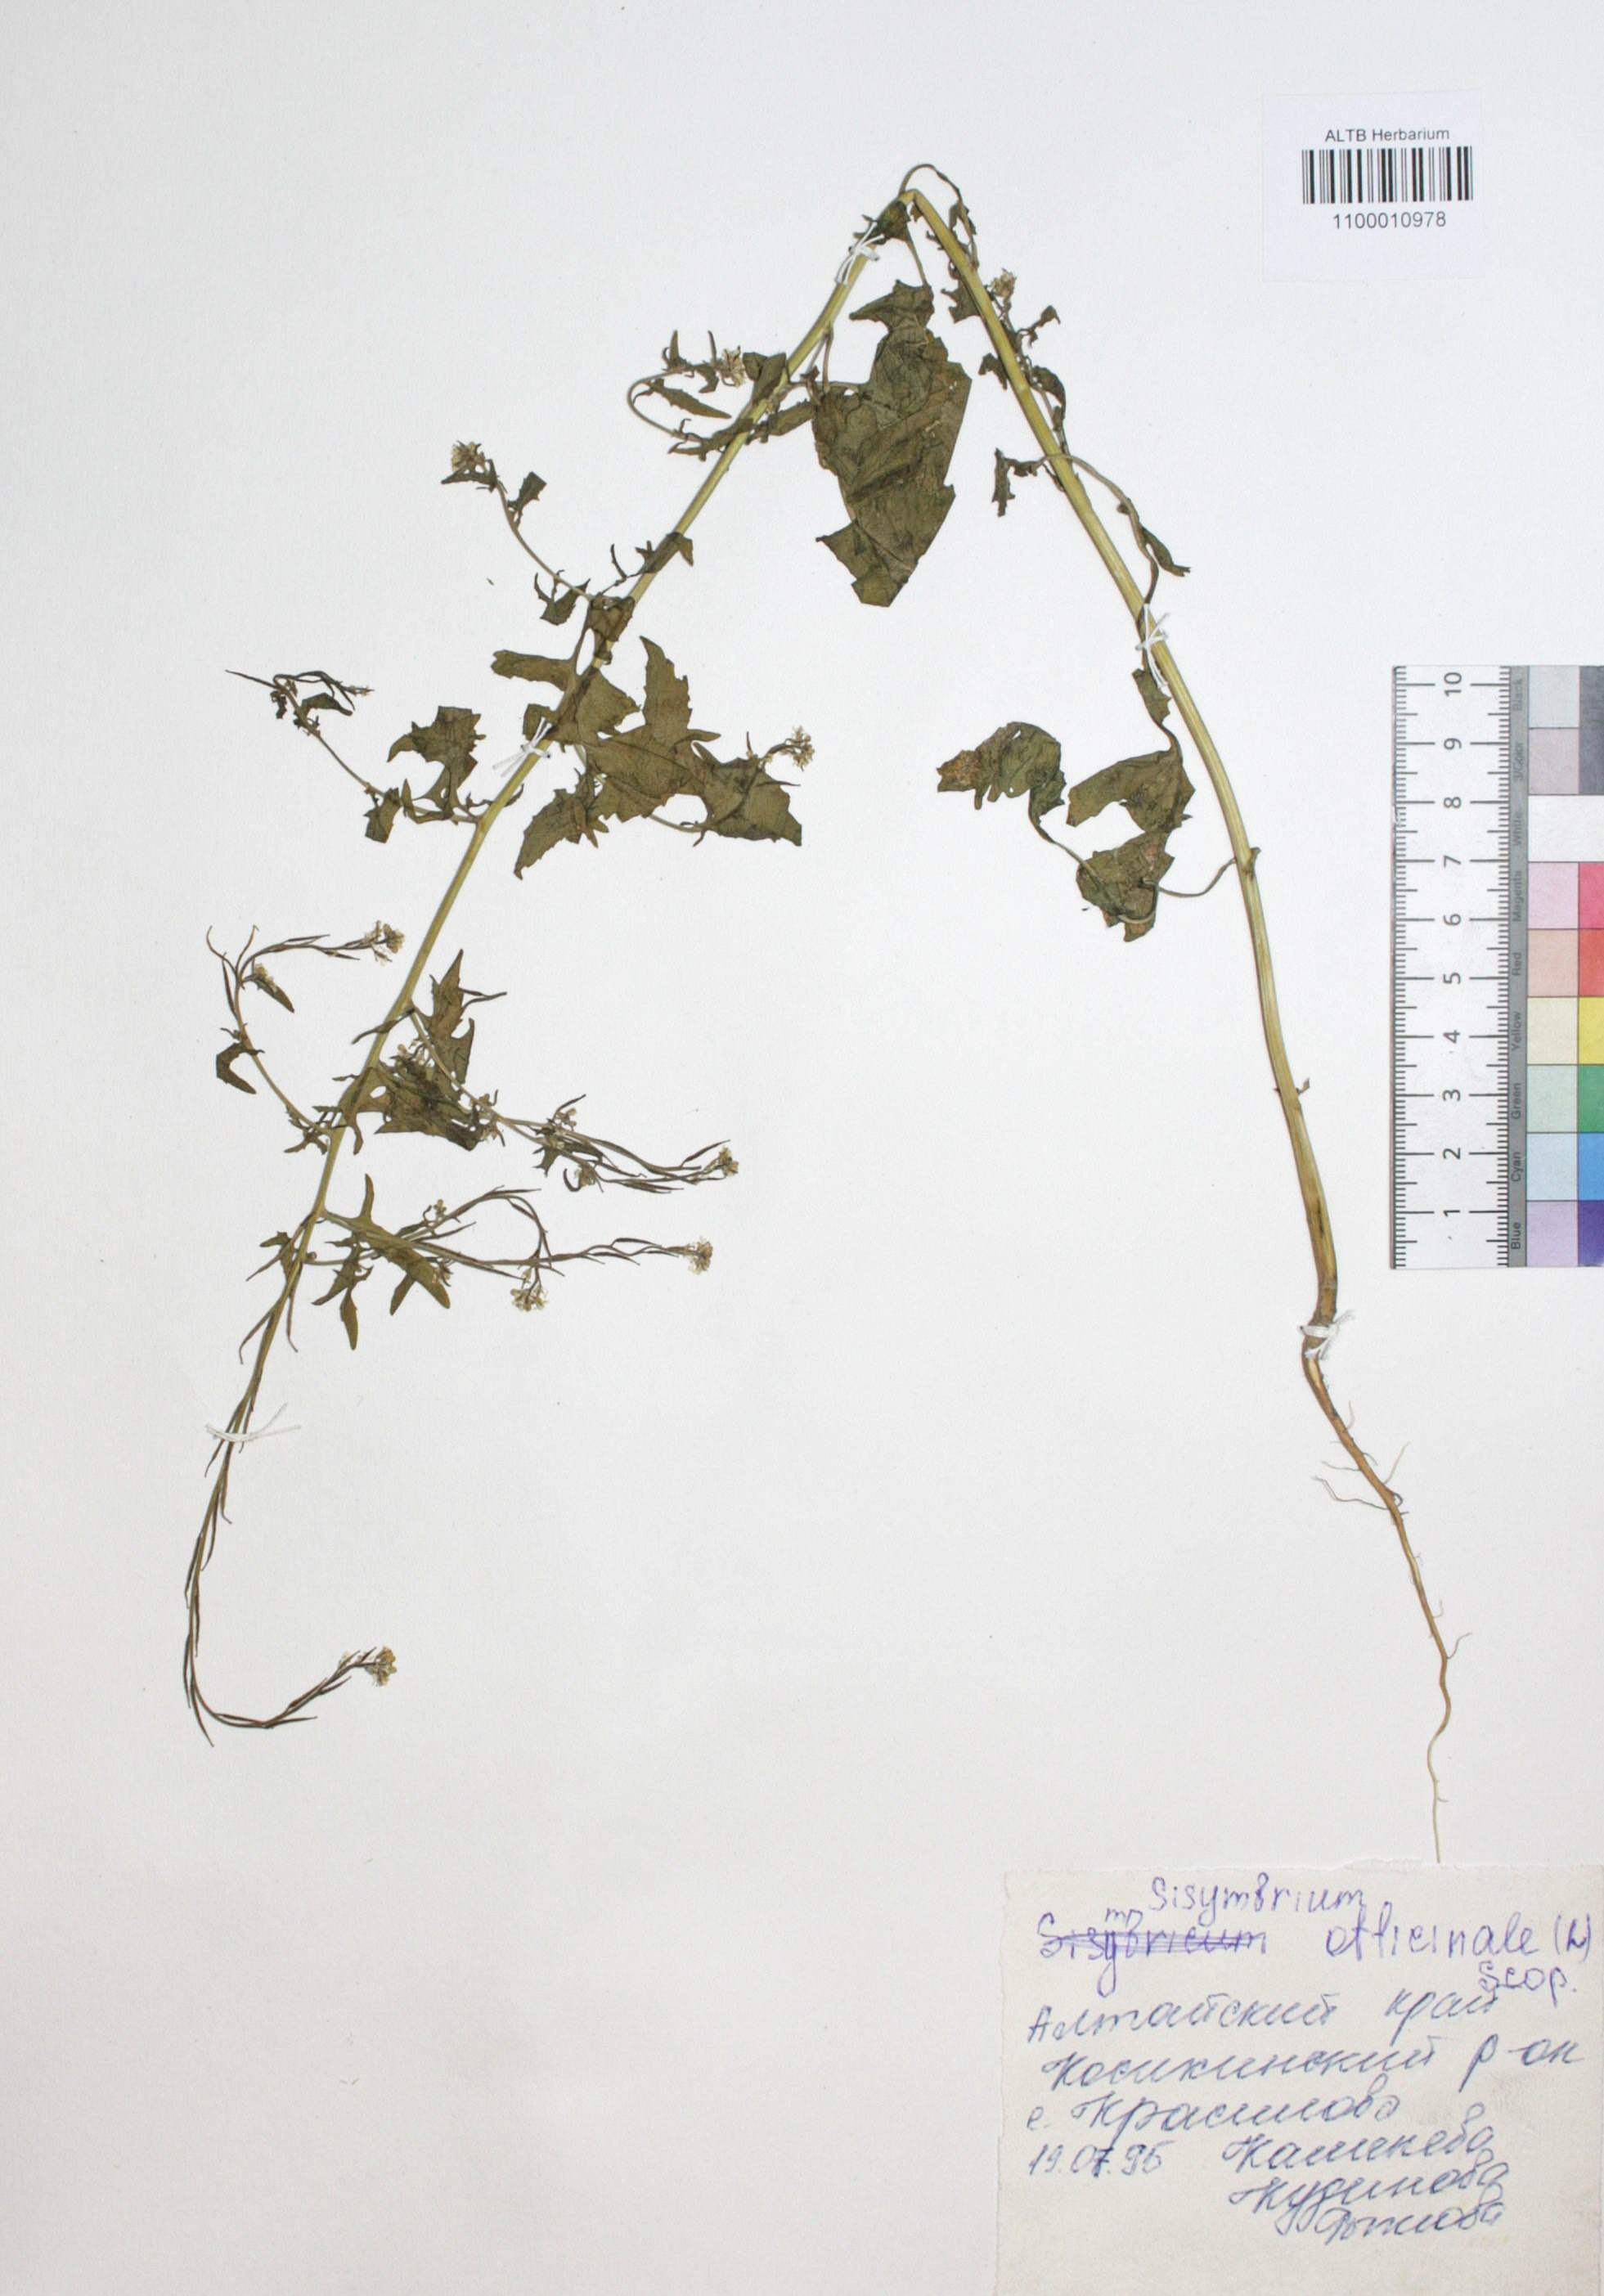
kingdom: Plantae
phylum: Tracheophyta
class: Magnoliopsida
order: Brassicales
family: Brassicaceae
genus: Sisymbrium
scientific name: Sisymbrium officinale
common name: Hedge mustard
